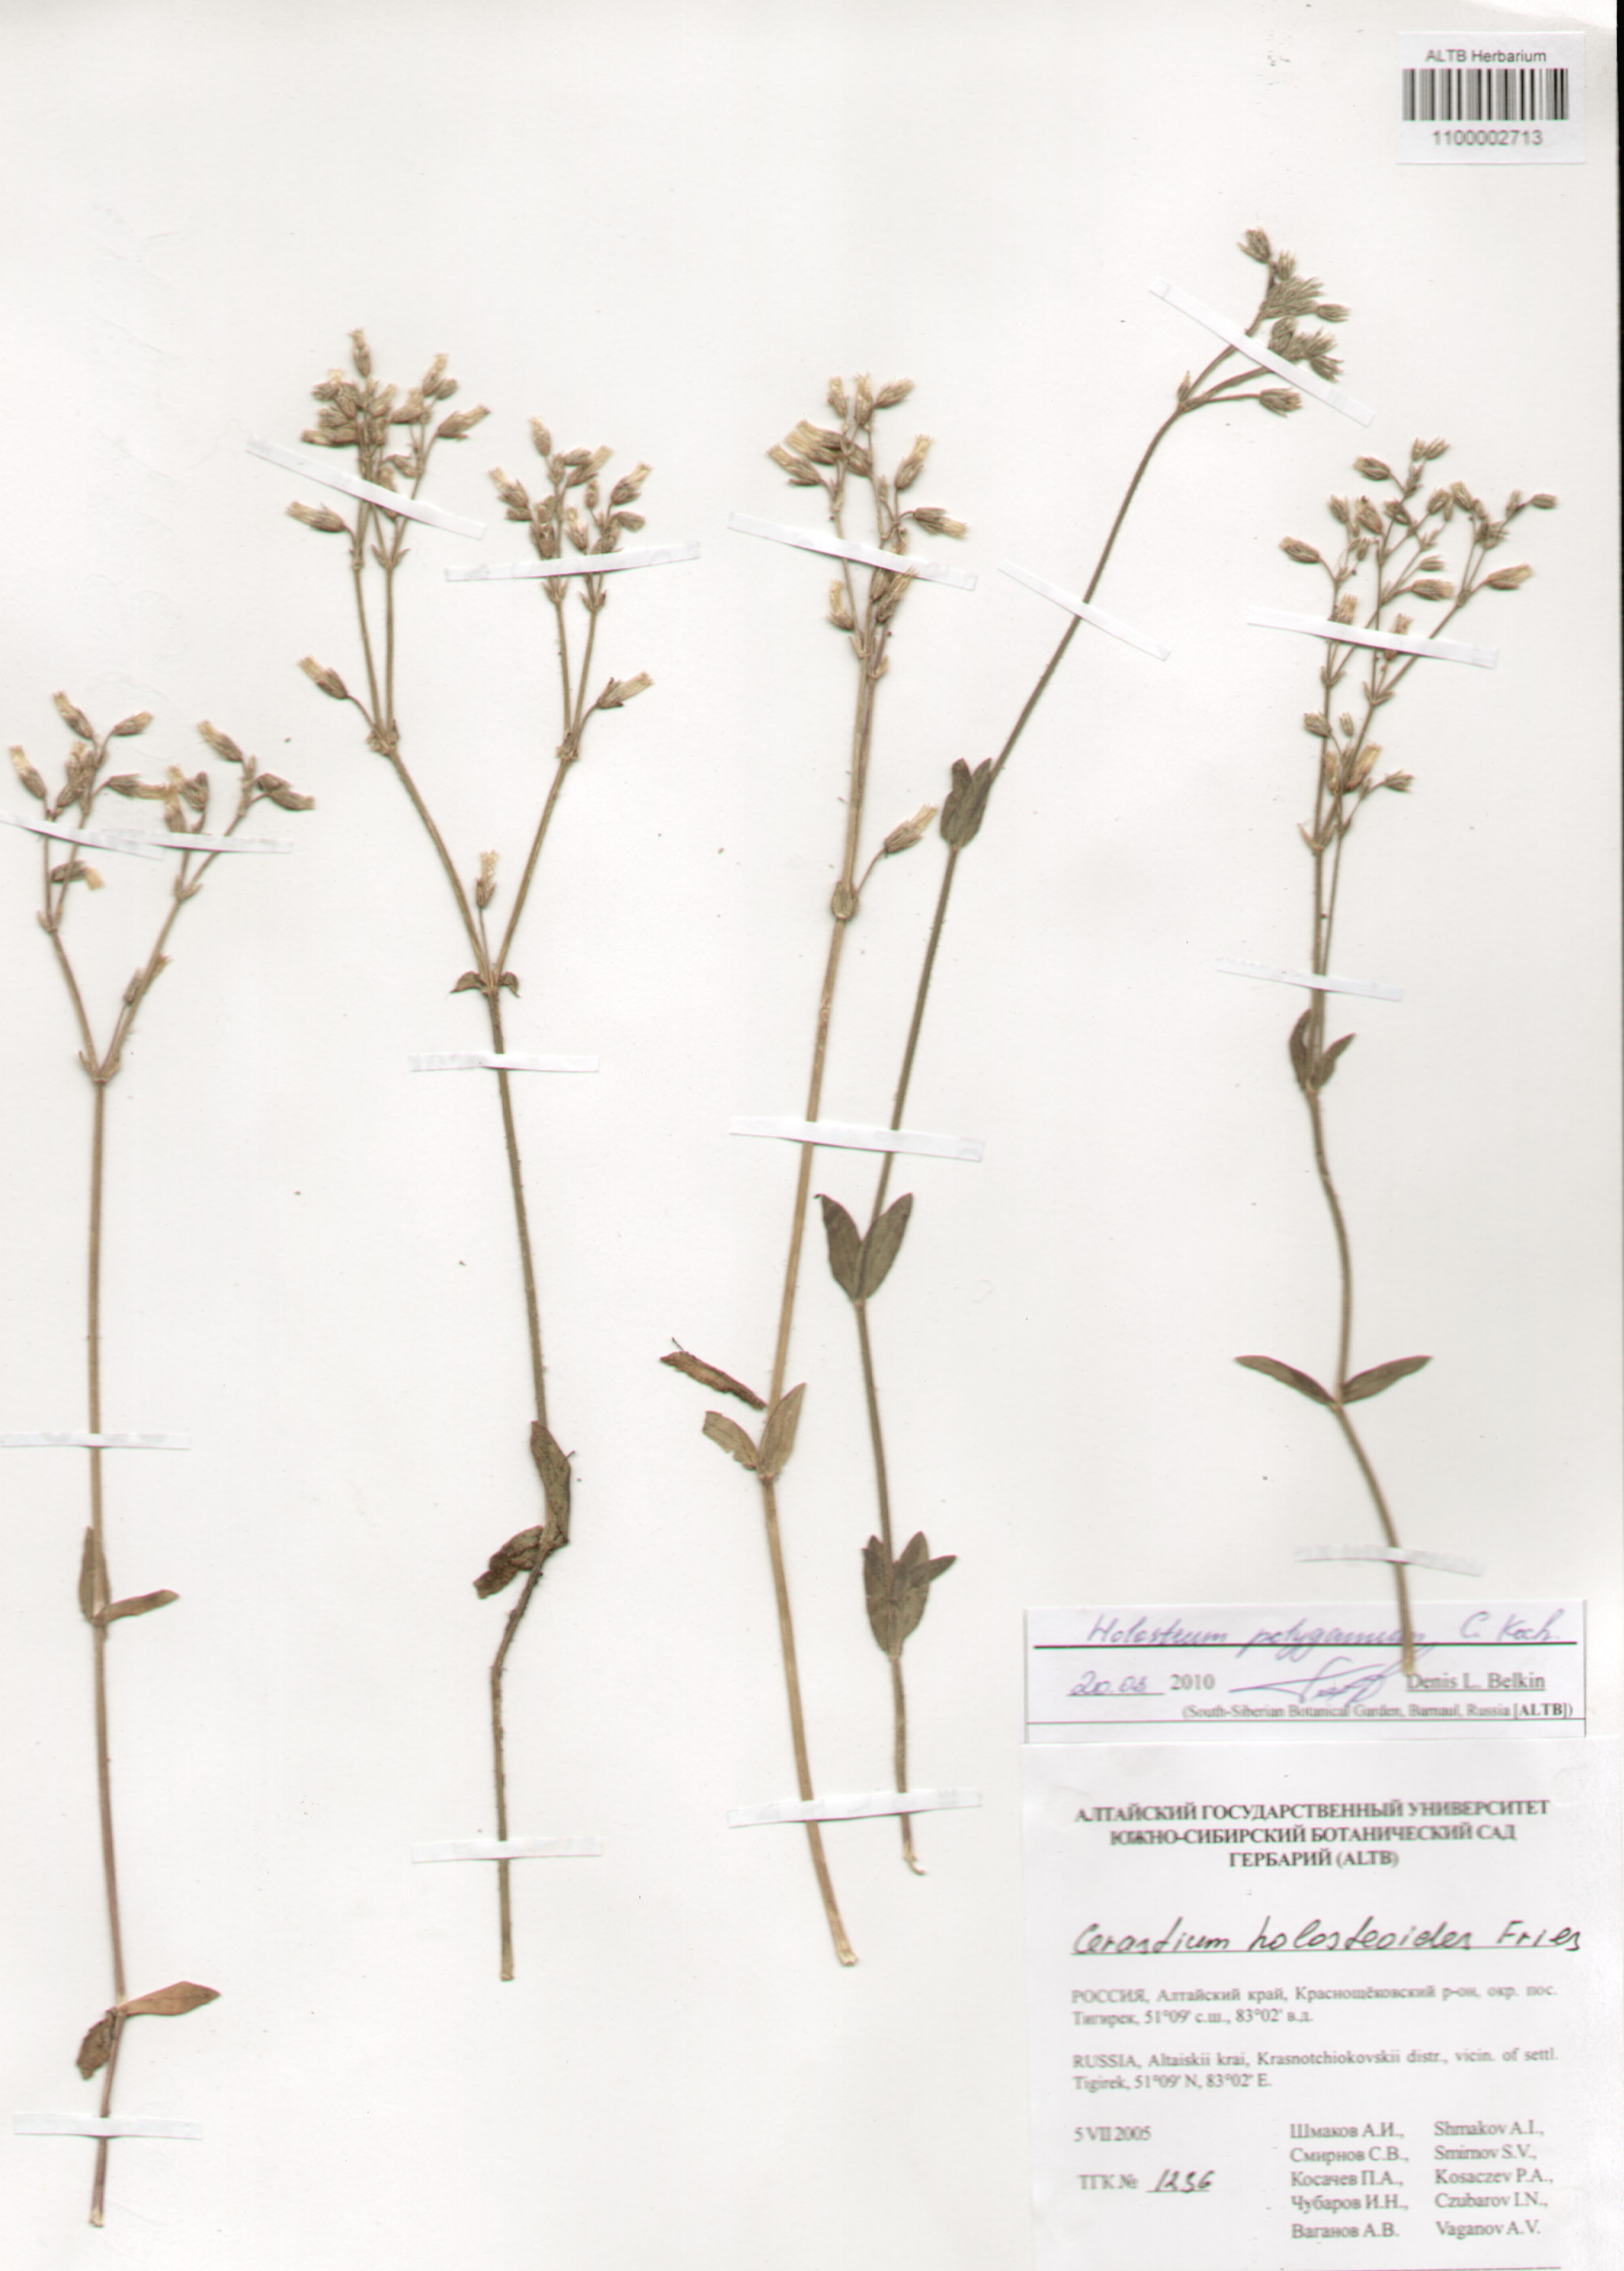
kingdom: Plantae
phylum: Tracheophyta
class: Magnoliopsida
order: Caryophyllales
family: Caryophyllaceae
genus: Holosteum
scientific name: Holosteum glutinosum
